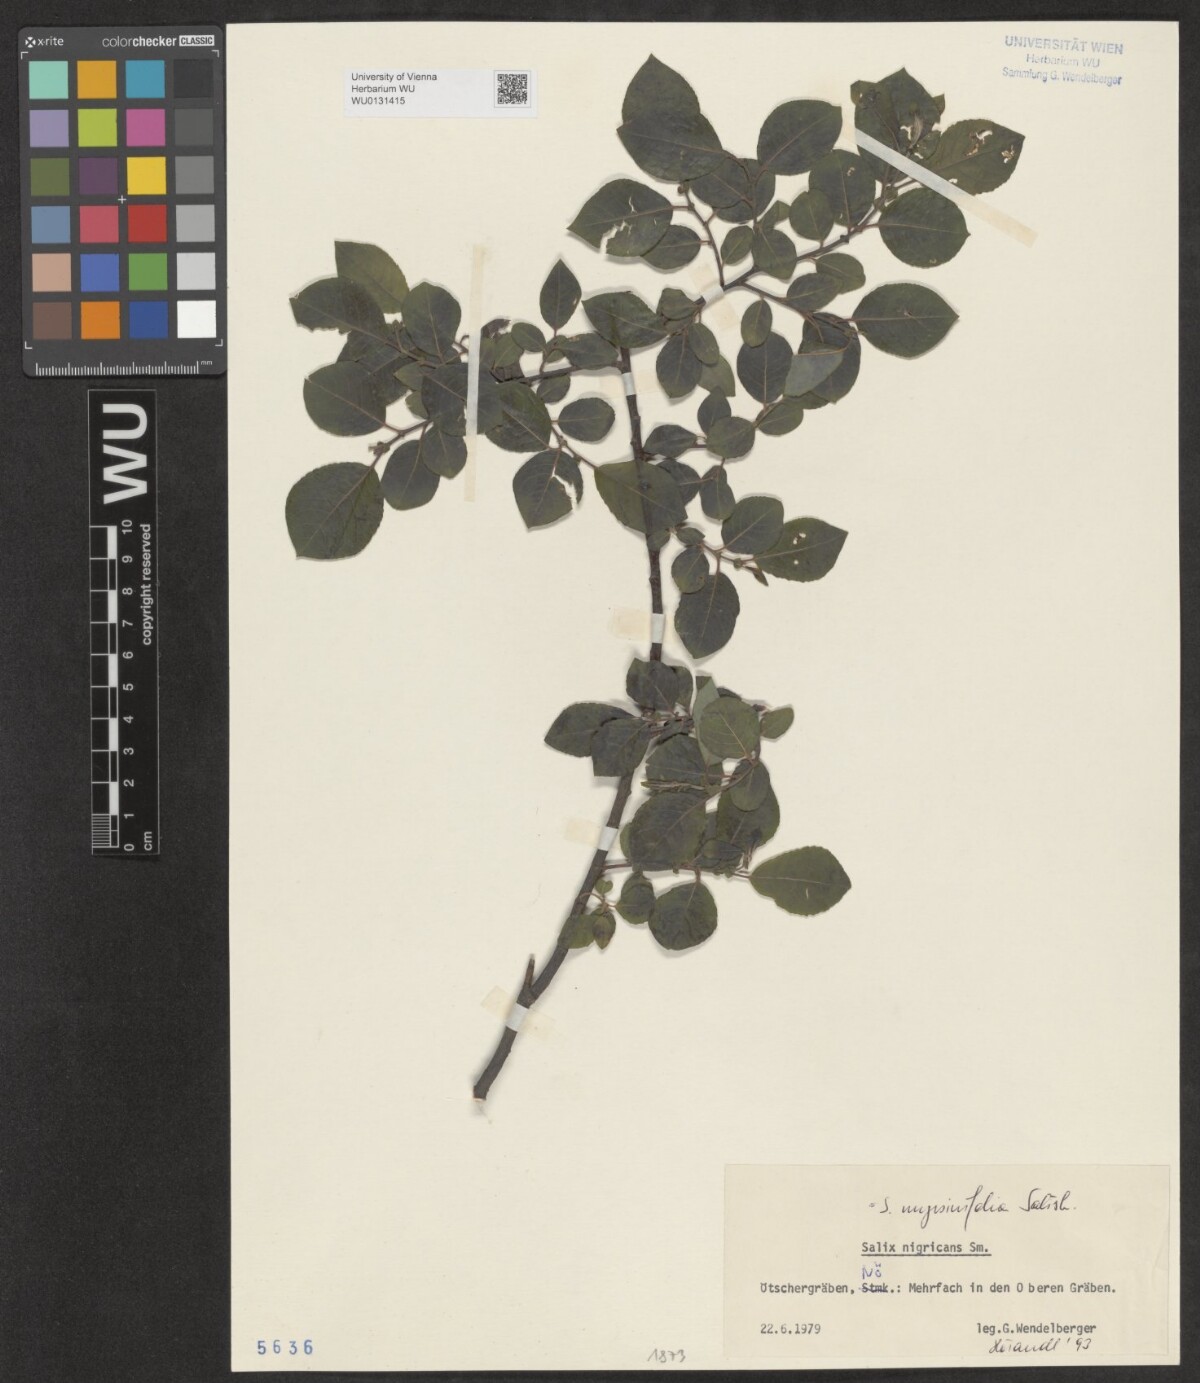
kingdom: Plantae
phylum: Tracheophyta
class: Magnoliopsida
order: Malpighiales
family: Salicaceae
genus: Salix
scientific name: Salix myrsinifolia
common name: Dark-leaved willow
